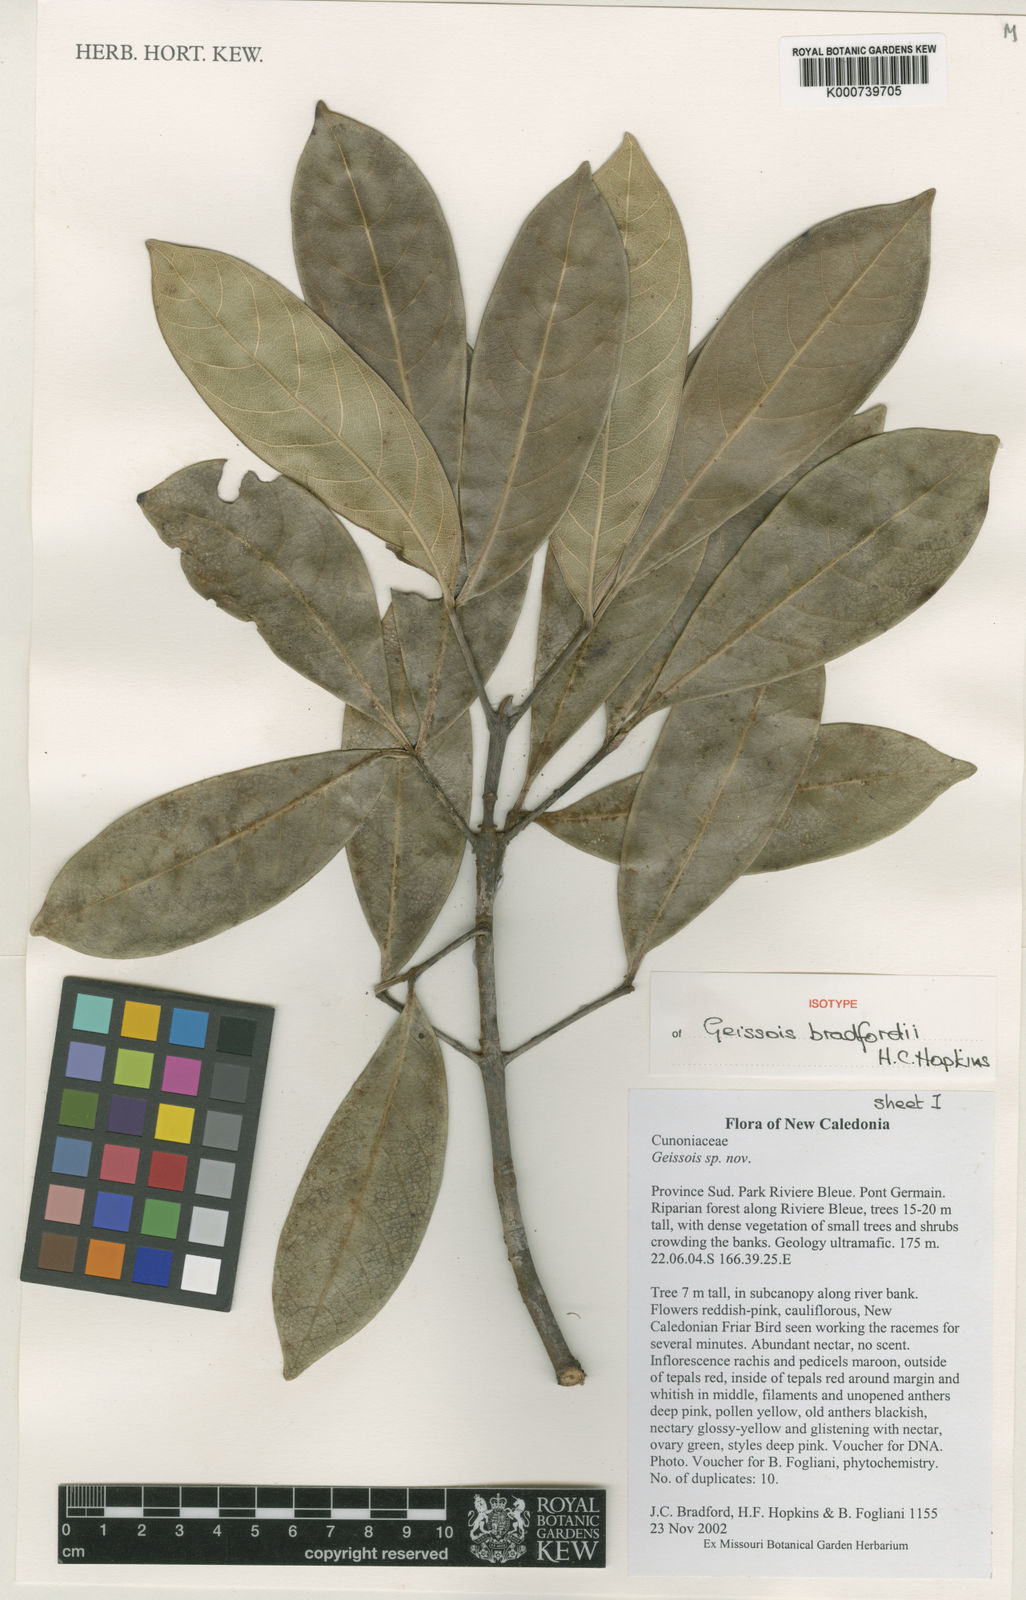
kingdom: Plantae
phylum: Tracheophyta
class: Magnoliopsida
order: Oxalidales
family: Cunoniaceae
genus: Geissois
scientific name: Geissois bradfordii
